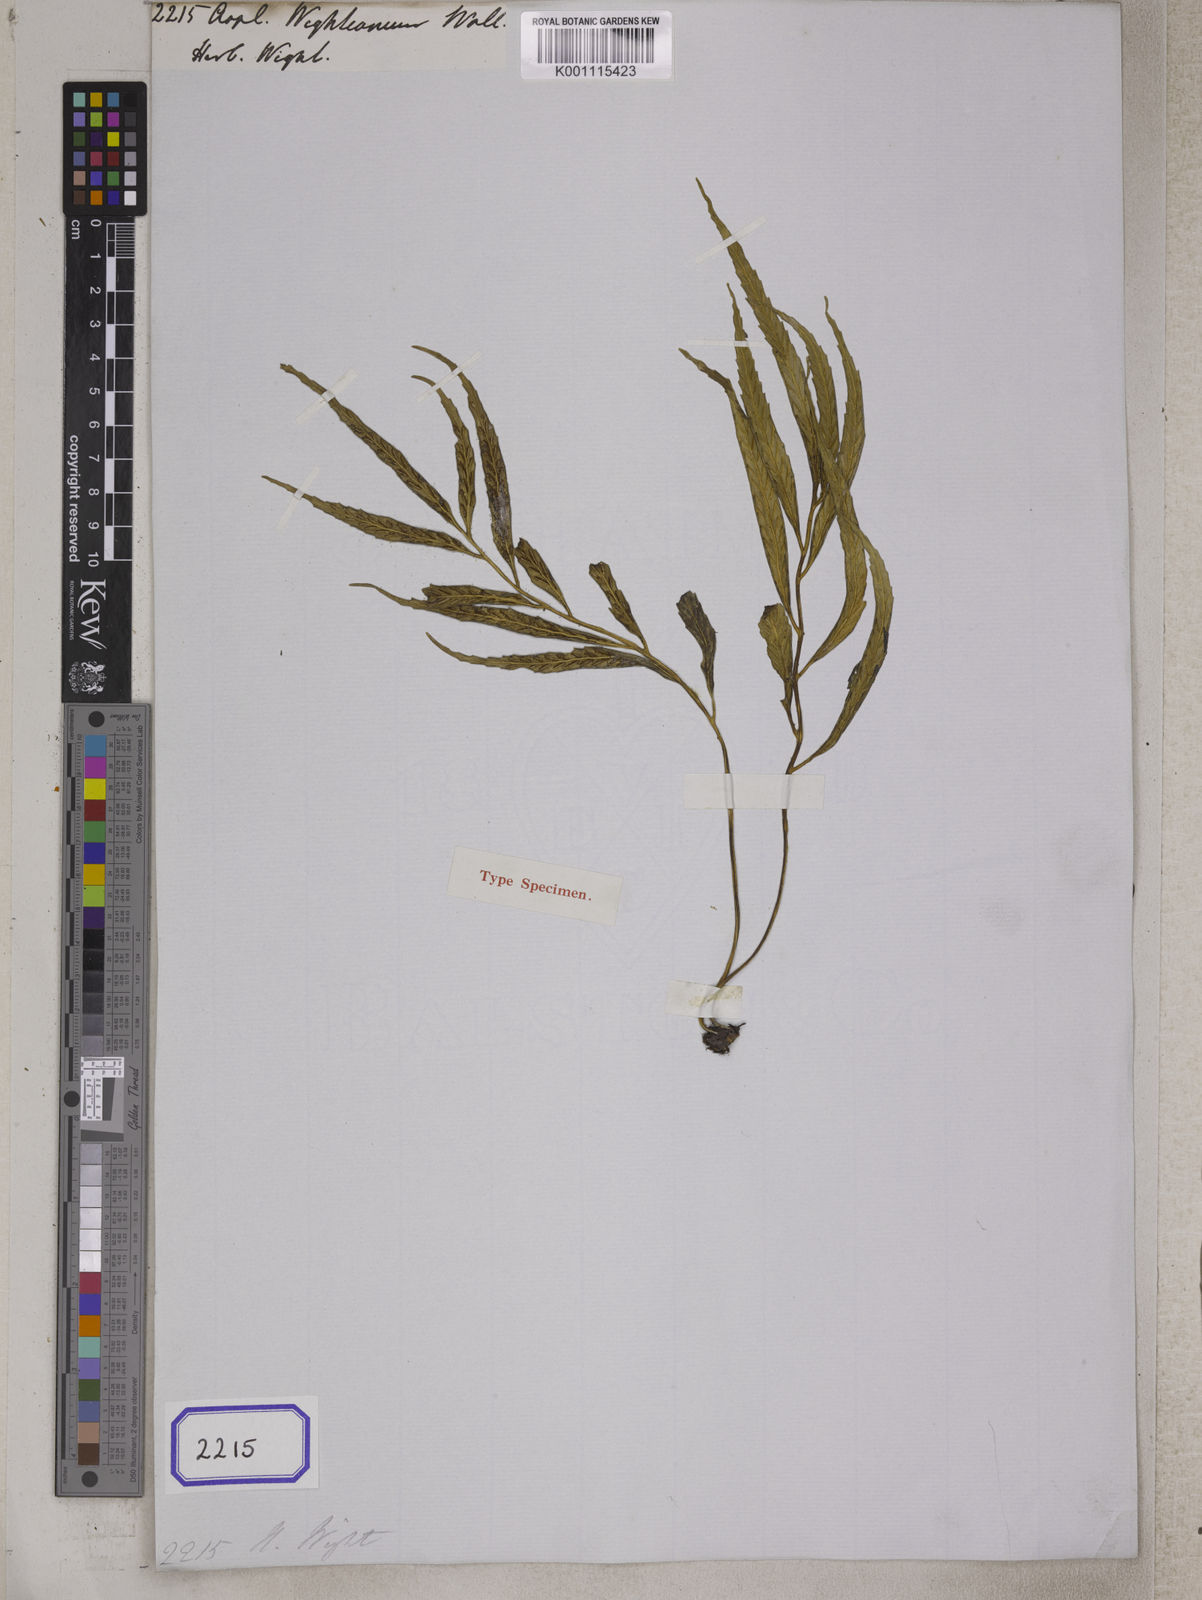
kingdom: Plantae
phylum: Tracheophyta
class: Polypodiopsida
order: Polypodiales
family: Aspleniaceae
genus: Asplenium
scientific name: Asplenium serricula
